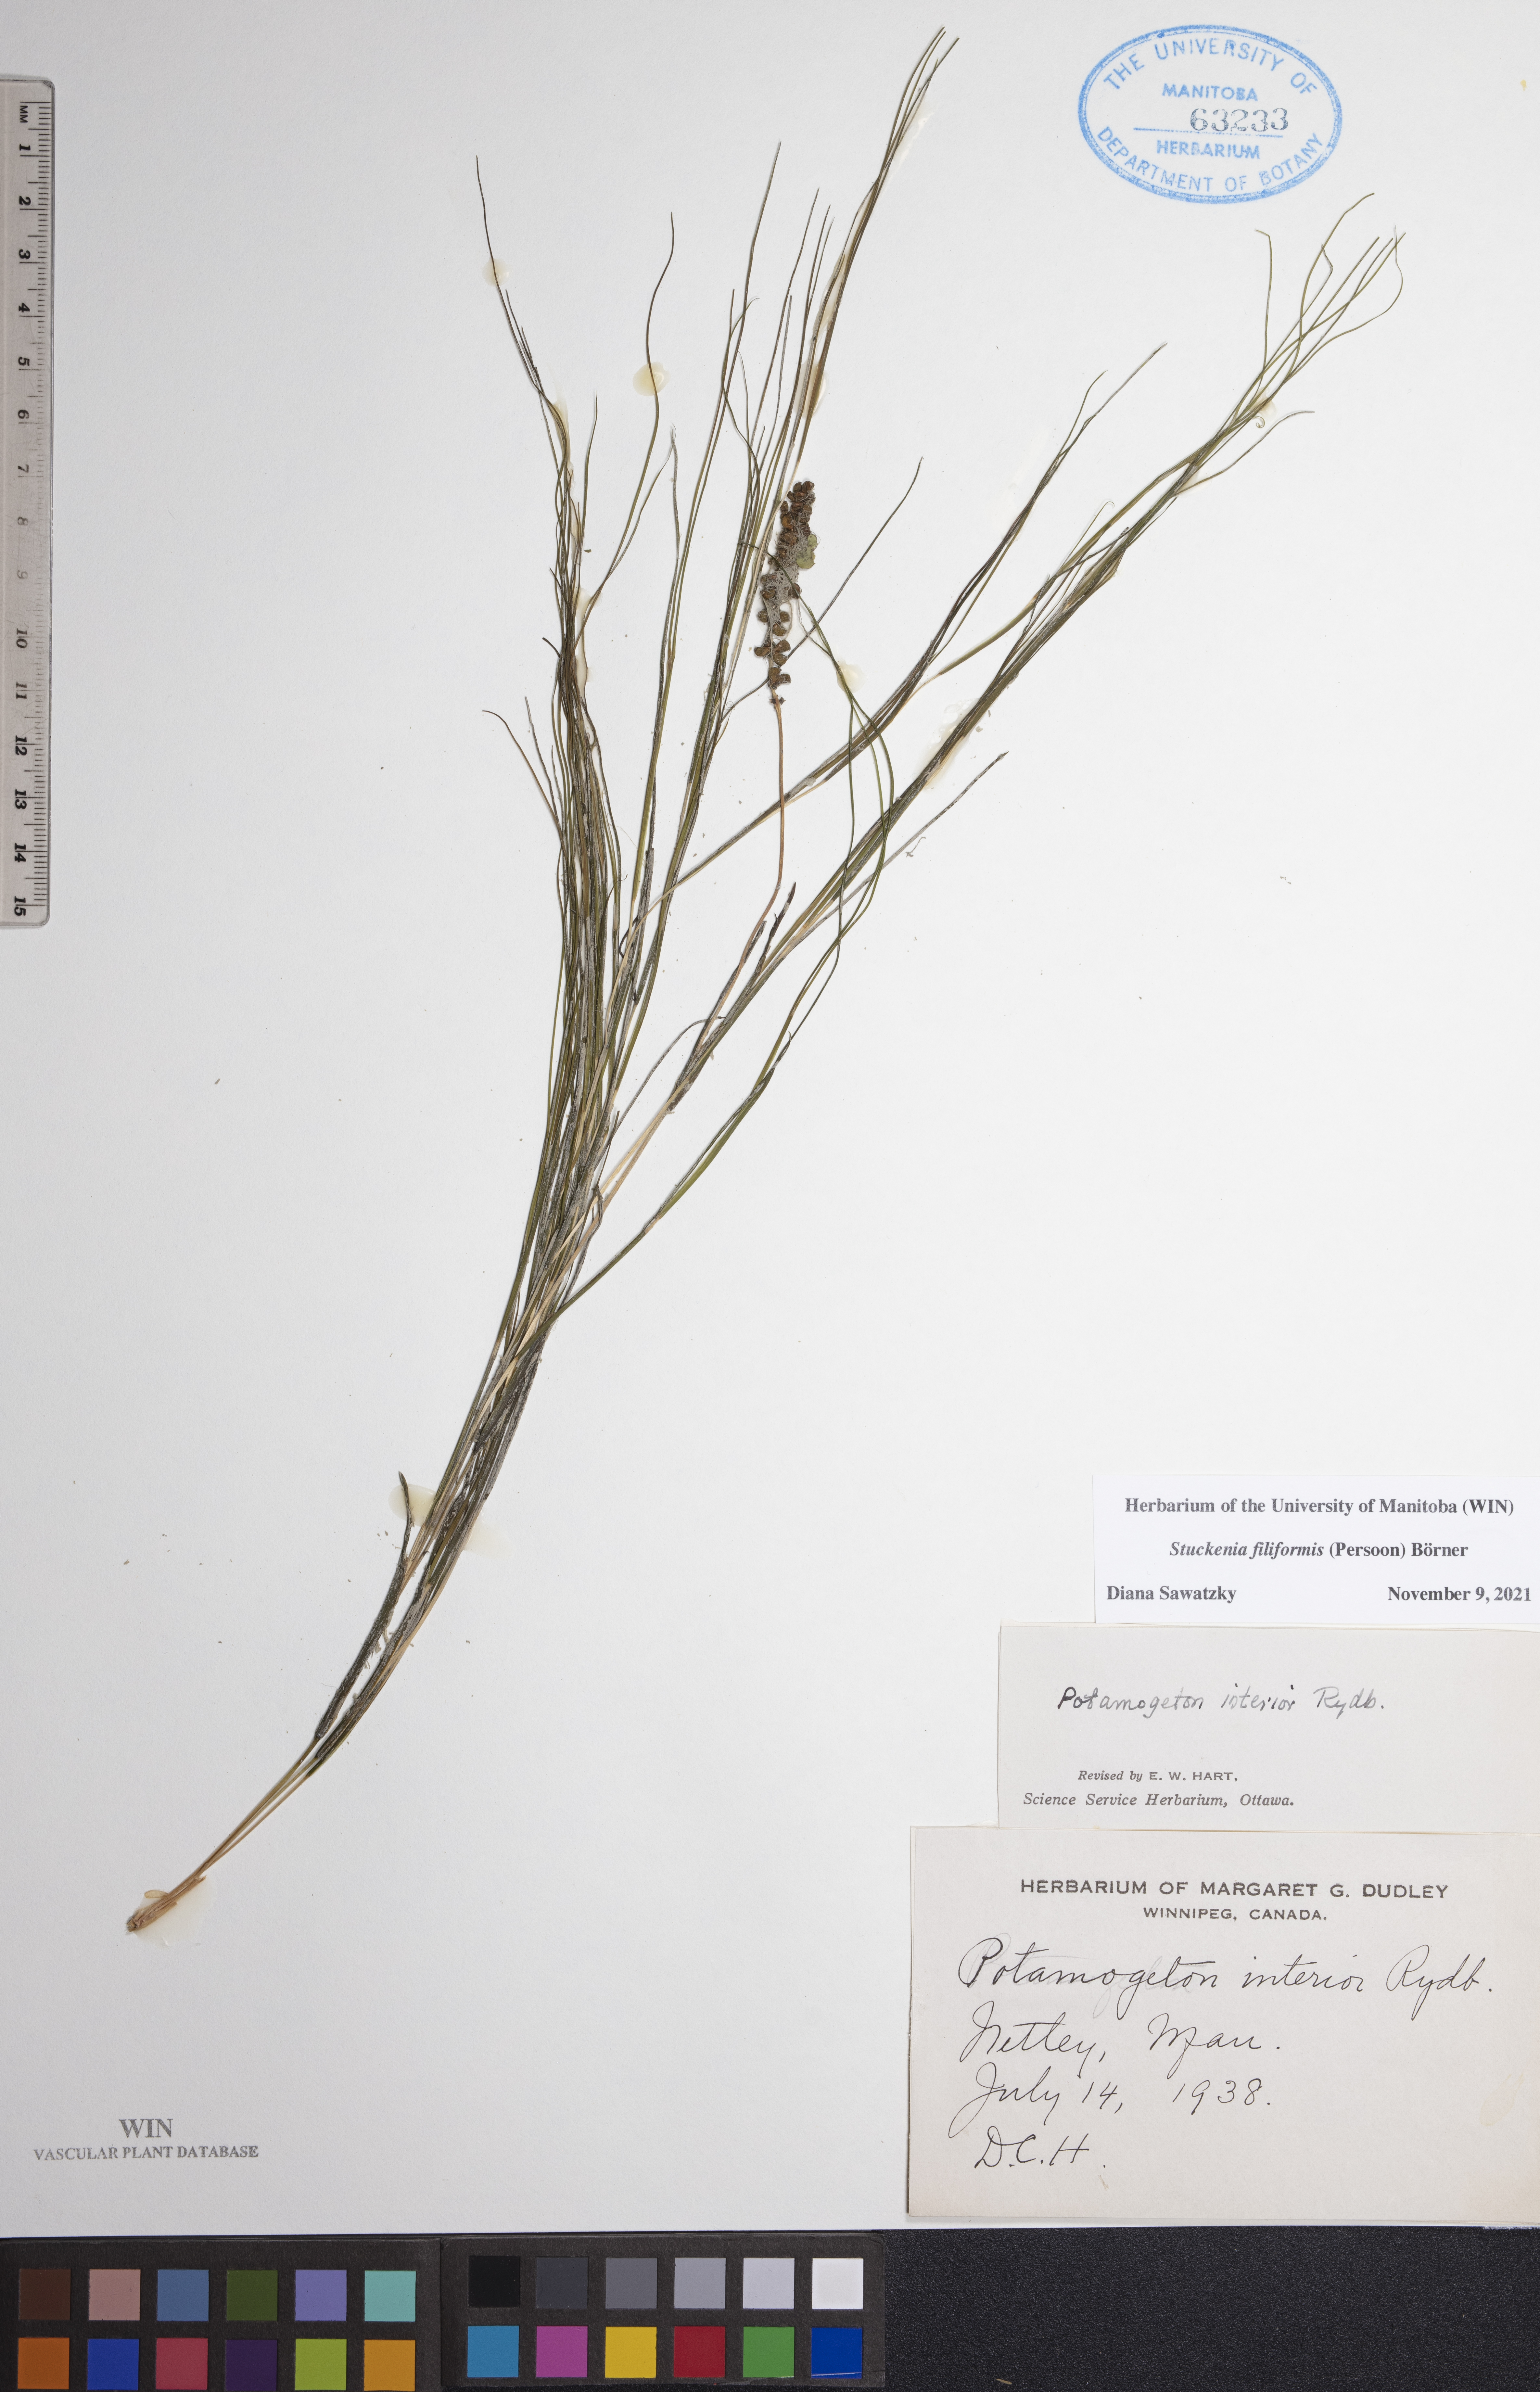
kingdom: Plantae
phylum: Tracheophyta
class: Liliopsida
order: Alismatales
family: Potamogetonaceae
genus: Stuckenia
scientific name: Stuckenia filiformis
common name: Alpine thread-leaved pondweed
